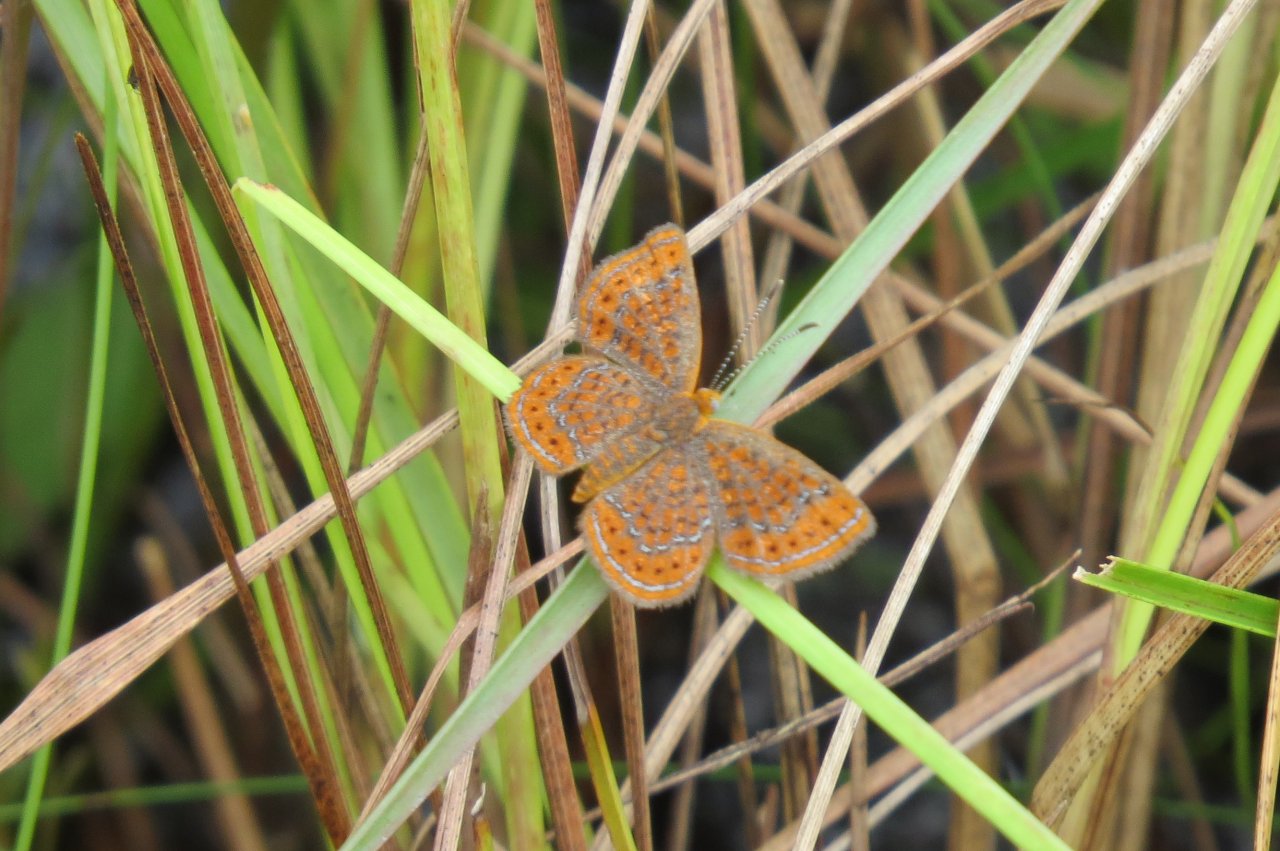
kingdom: Animalia
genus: Calephelis
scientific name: Calephelis virginiensis
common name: Little Metalmark
